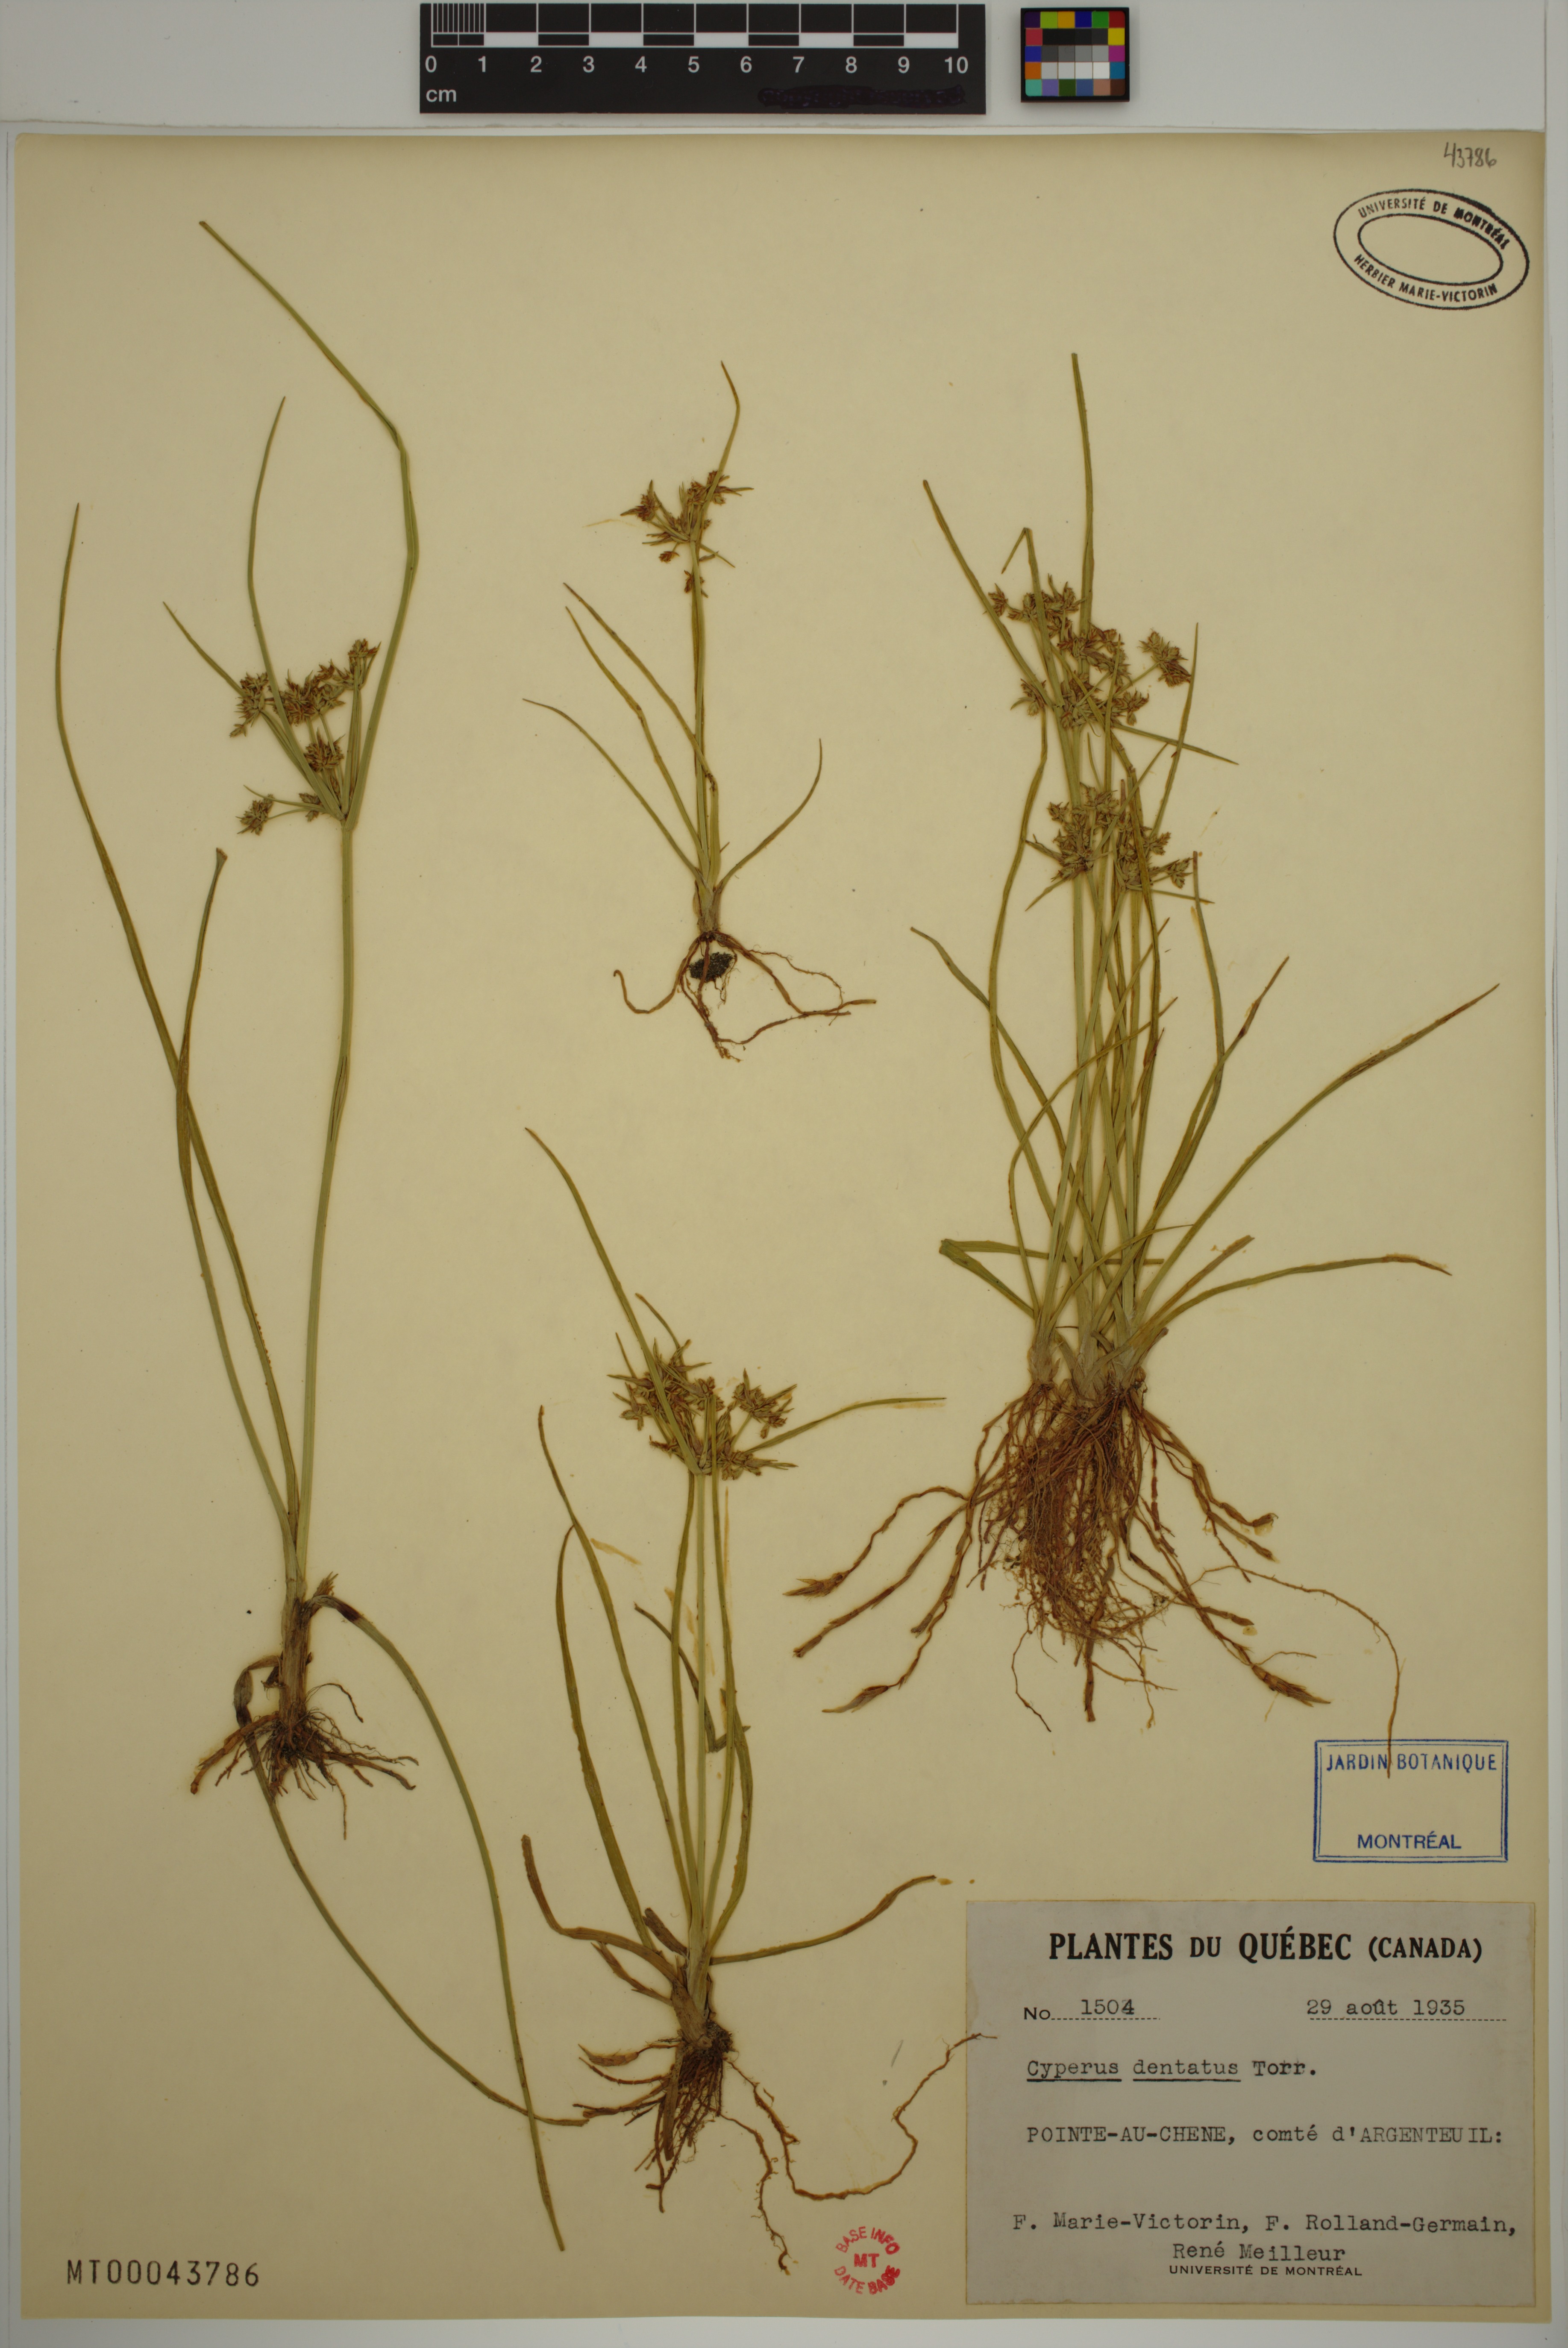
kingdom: Plantae
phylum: Tracheophyta
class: Liliopsida
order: Poales
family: Cyperaceae
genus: Cyperus
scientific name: Cyperus dentatus
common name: Dentate umbrella sedge
